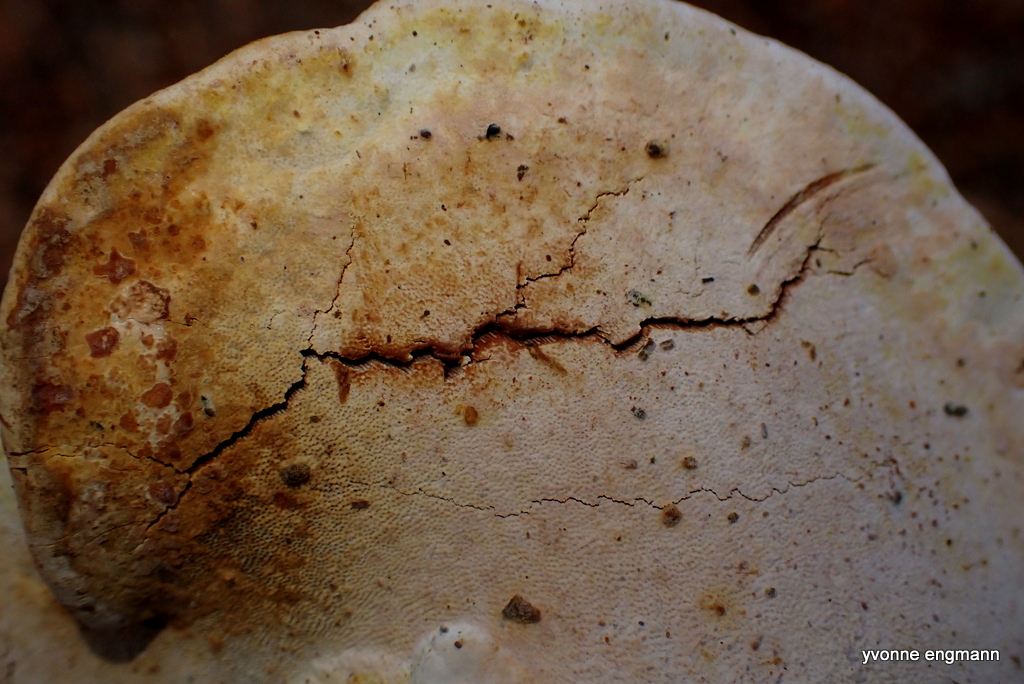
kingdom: Fungi
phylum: Basidiomycota
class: Agaricomycetes
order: Polyporales
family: Polyporaceae
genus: Ganoderma
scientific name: Ganoderma applanatum
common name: flad lakporesvamp
